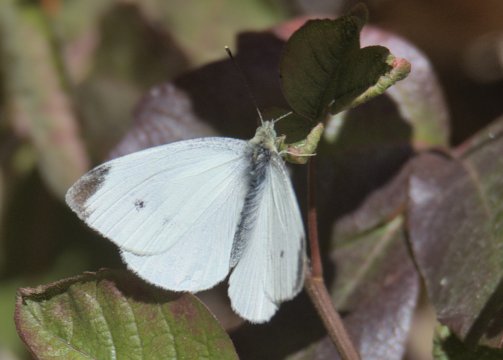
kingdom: Animalia
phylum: Arthropoda
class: Insecta
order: Lepidoptera
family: Pieridae
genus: Pieris
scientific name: Pieris rapae
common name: Cabbage White
